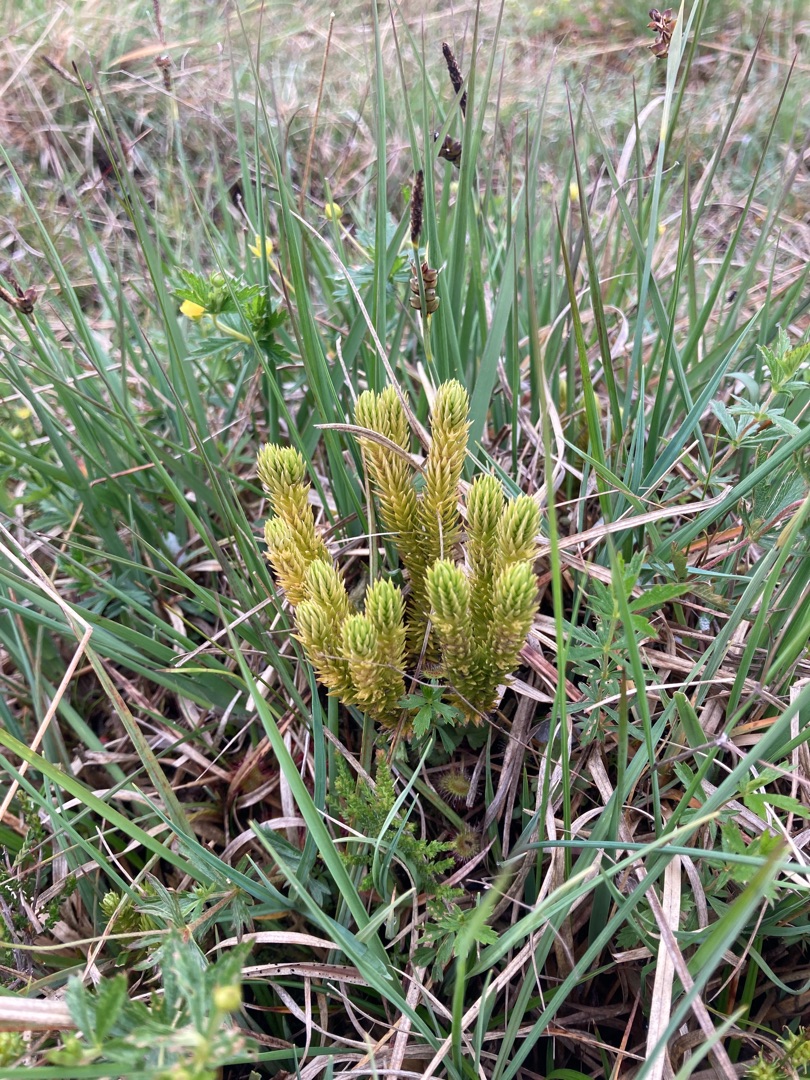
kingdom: Plantae
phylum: Tracheophyta
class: Lycopodiopsida
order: Lycopodiales
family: Lycopodiaceae
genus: Huperzia
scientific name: Huperzia selago
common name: Otteradet ulvefod
